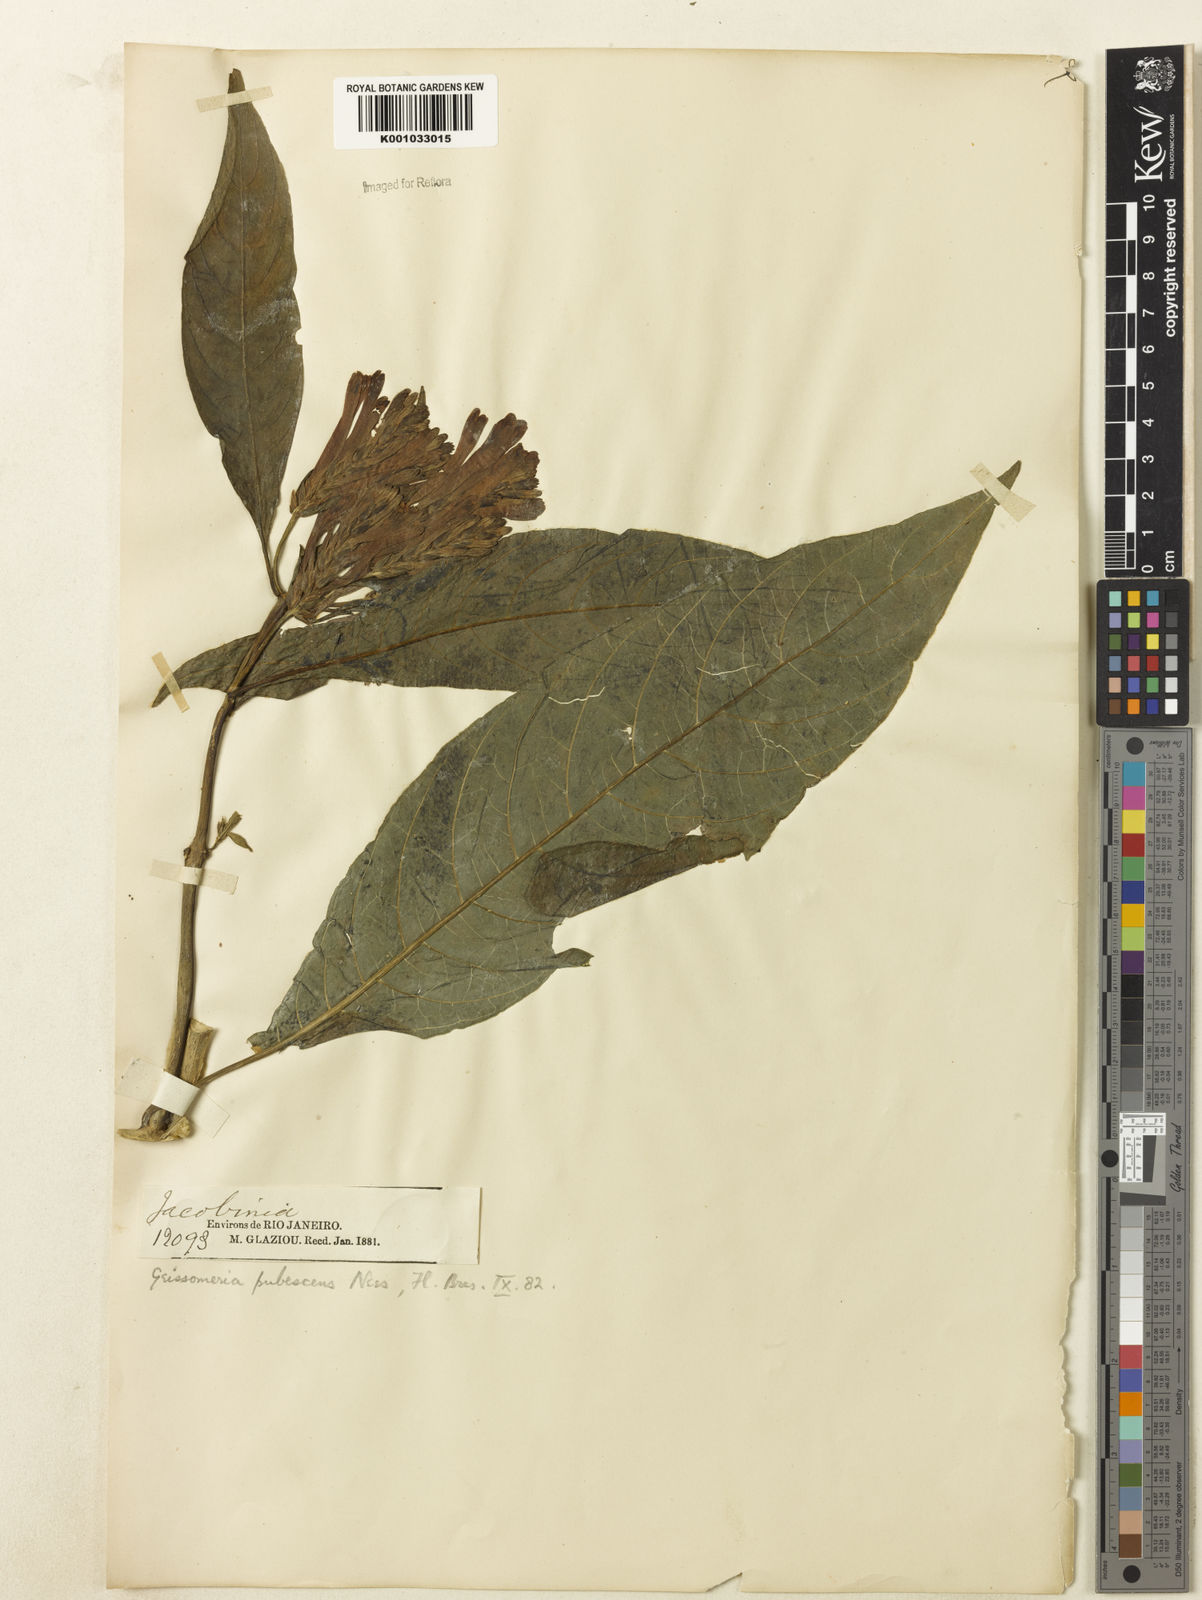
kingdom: Plantae
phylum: Tracheophyta
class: Magnoliopsida
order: Lamiales
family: Acanthaceae
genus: Aphelandra
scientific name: Aphelandra longiflora
